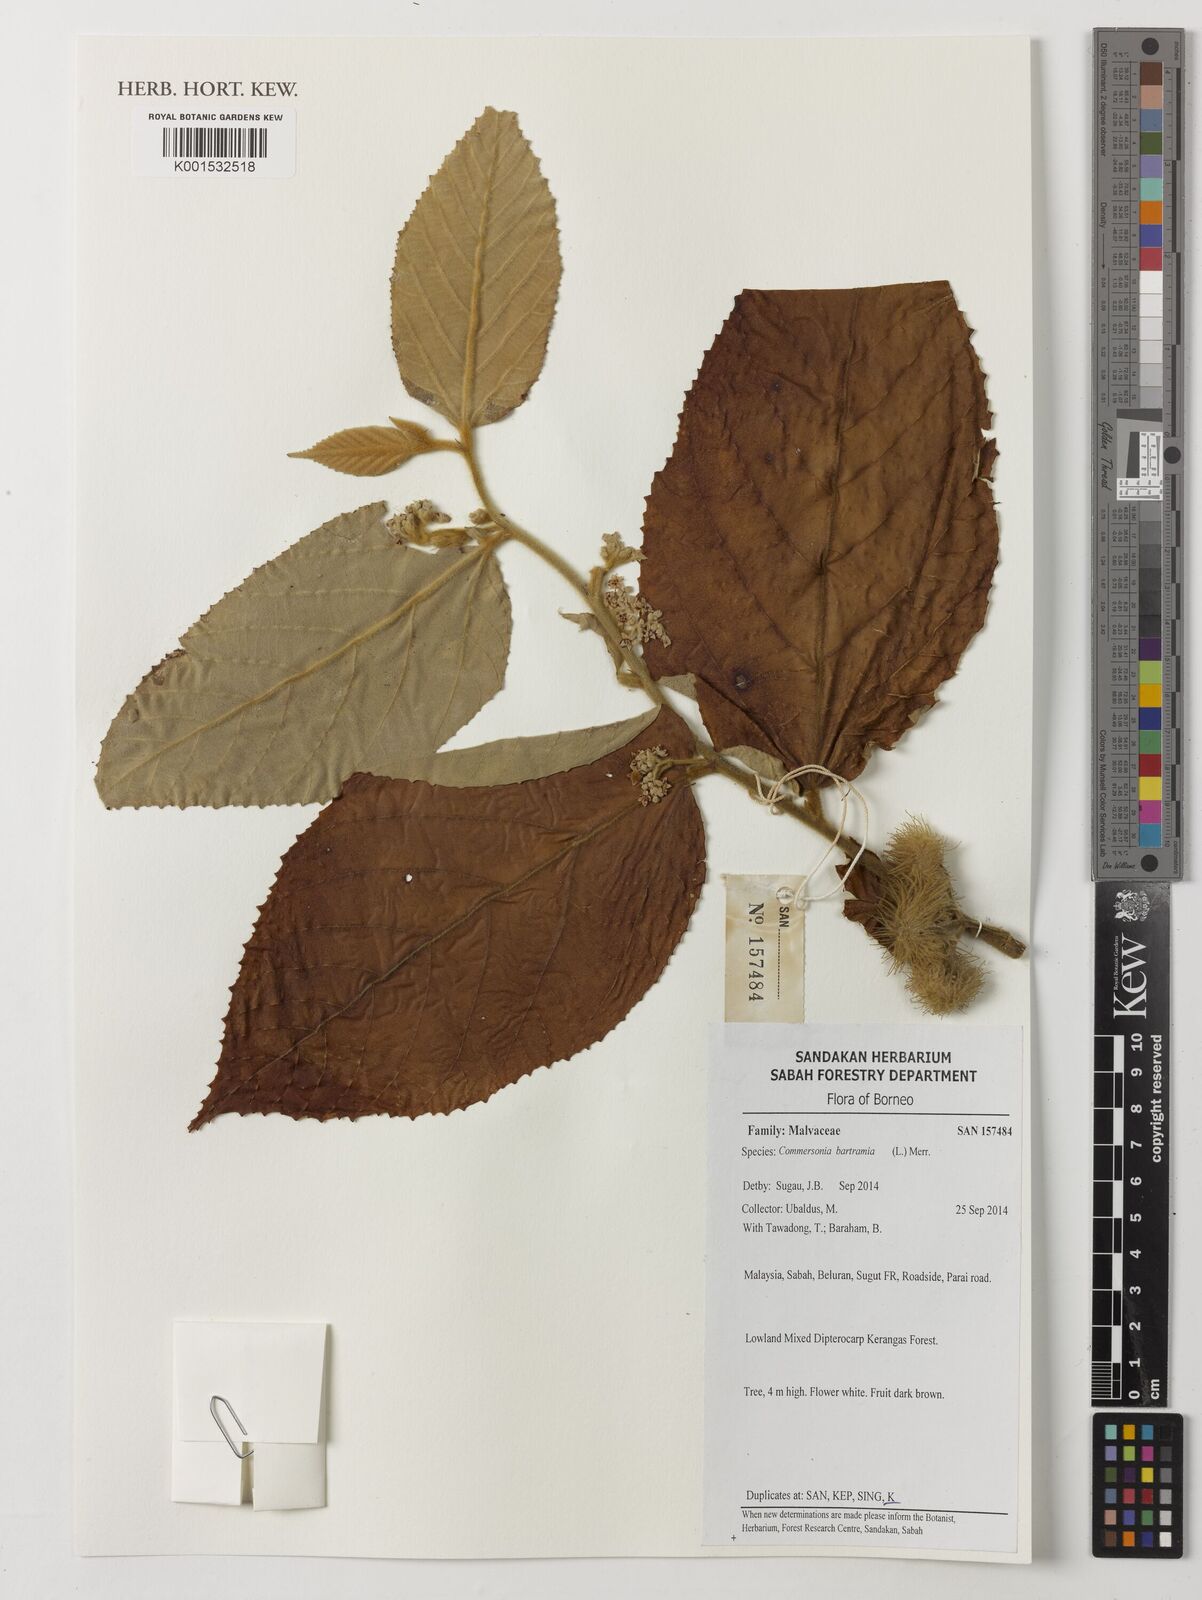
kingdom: Plantae
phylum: Tracheophyta
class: Magnoliopsida
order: Malvales
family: Malvaceae
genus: Commersonia
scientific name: Commersonia bartramia
